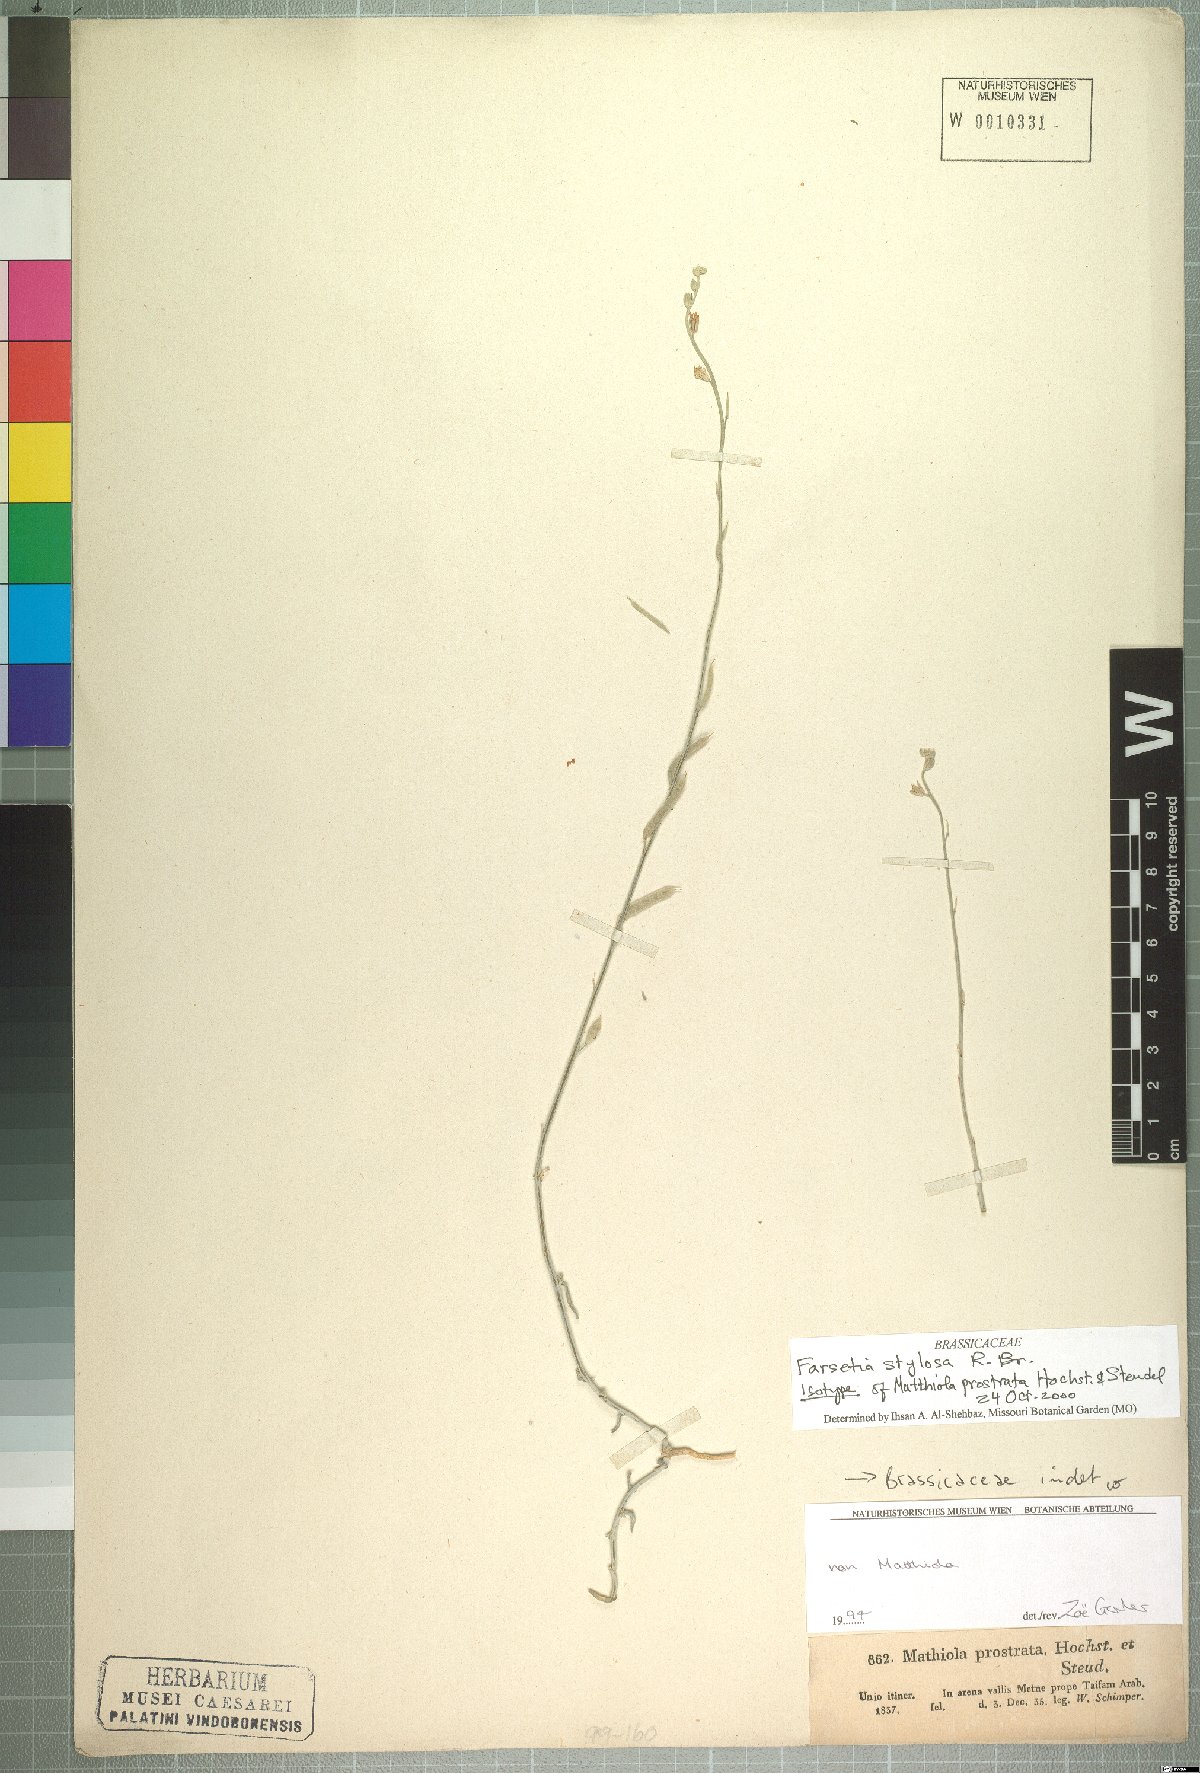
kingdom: Plantae
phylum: Tracheophyta
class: Magnoliopsida
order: Brassicales
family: Brassicaceae
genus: Farsetia
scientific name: Farsetia stylosa
